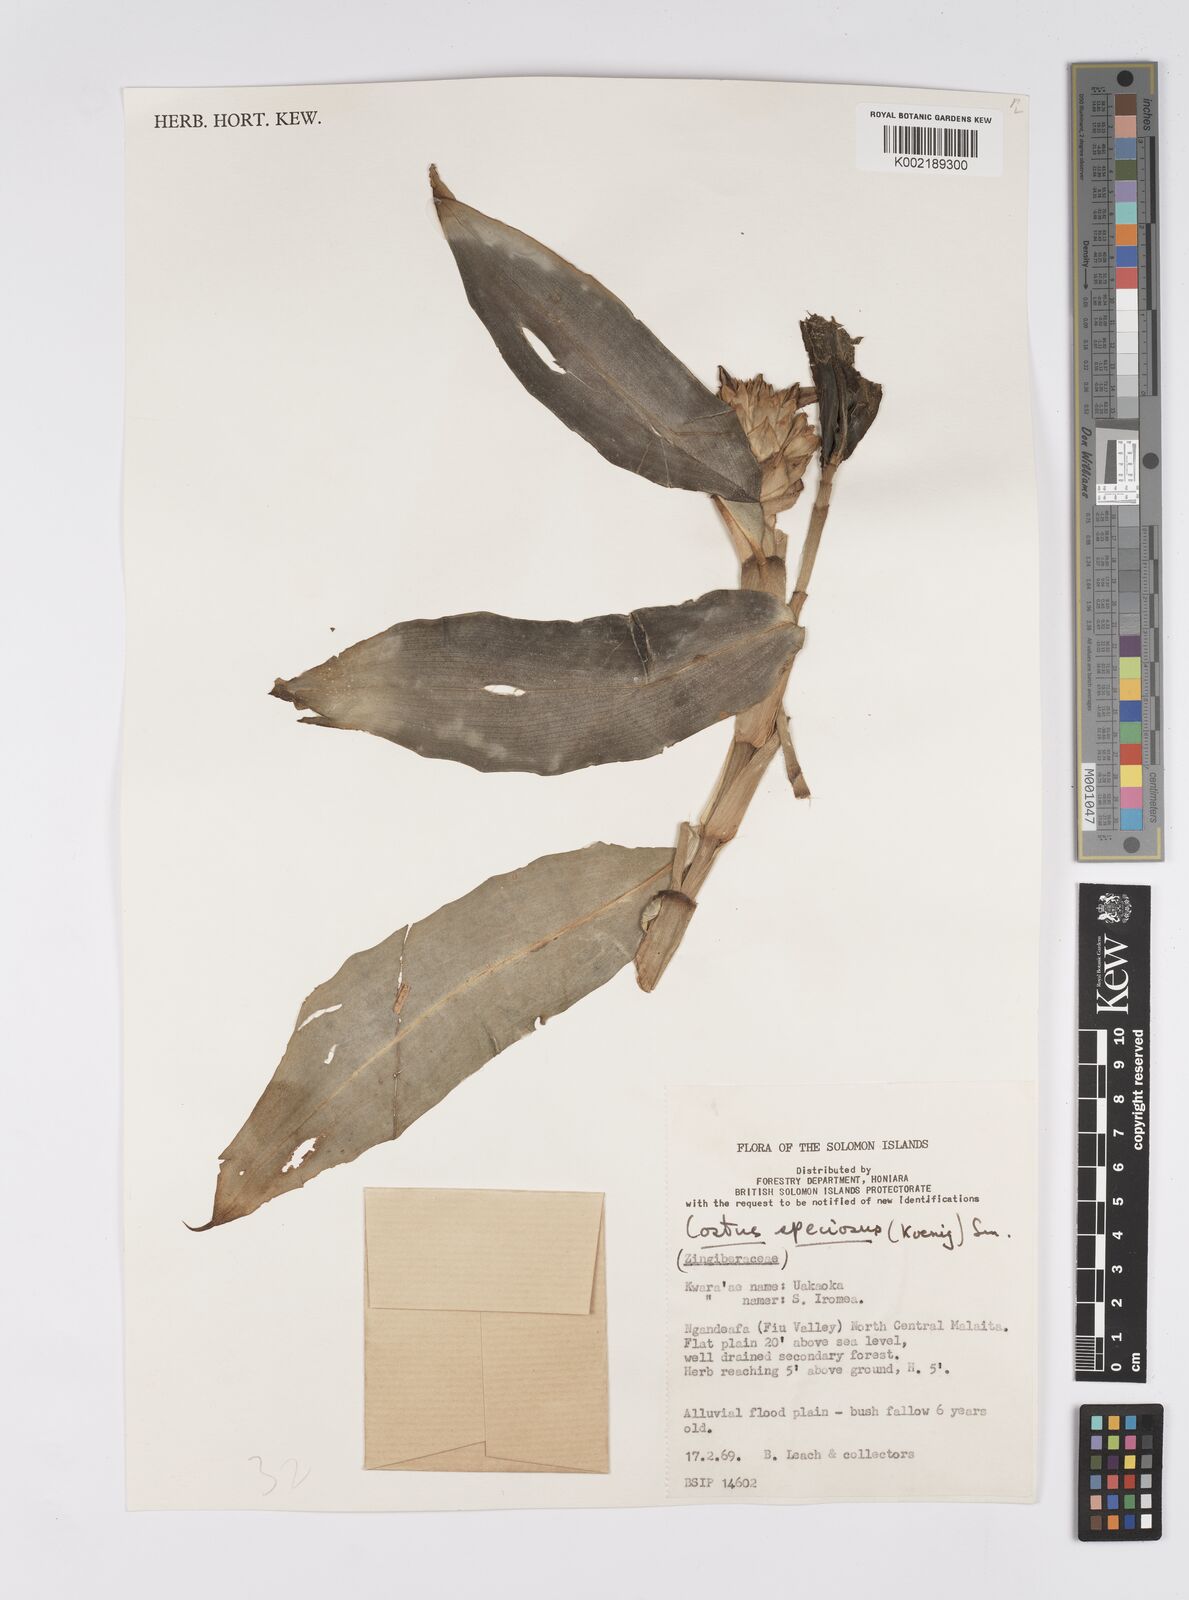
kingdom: Plantae
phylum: Tracheophyta
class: Liliopsida
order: Zingiberales
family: Costaceae
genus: Hellenia
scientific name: Hellenia speciosa
